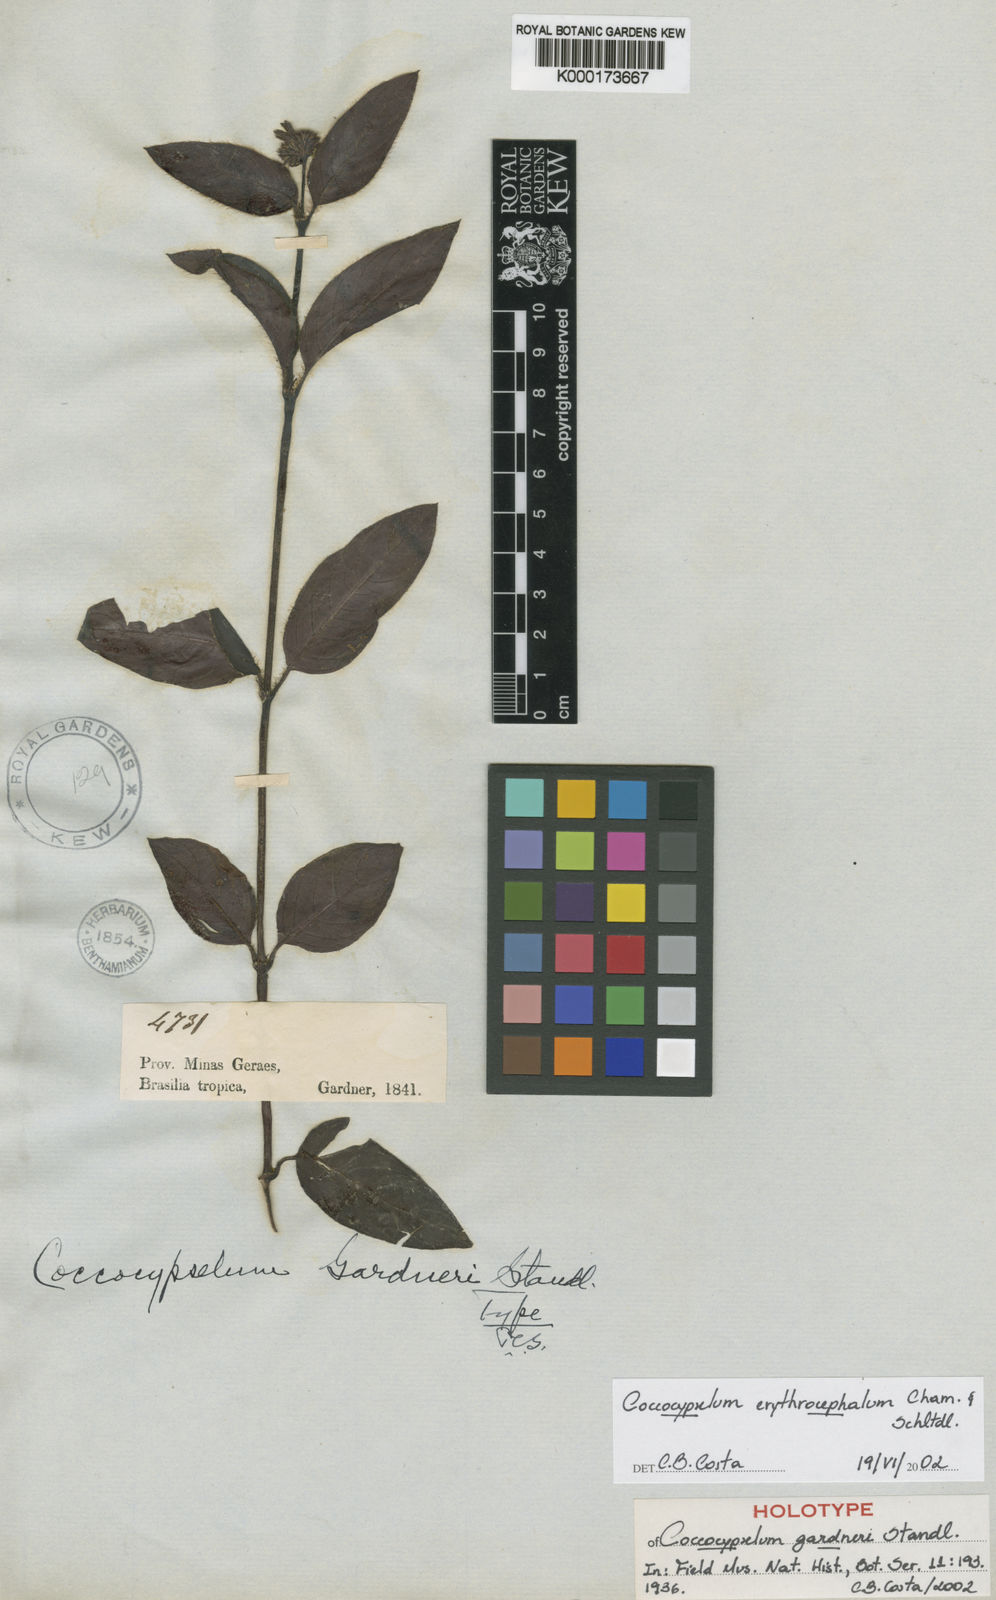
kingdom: Plantae
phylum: Tracheophyta
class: Magnoliopsida
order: Gentianales
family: Rubiaceae
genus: Coccocypselum
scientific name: Coccocypselum erythrocephalum
